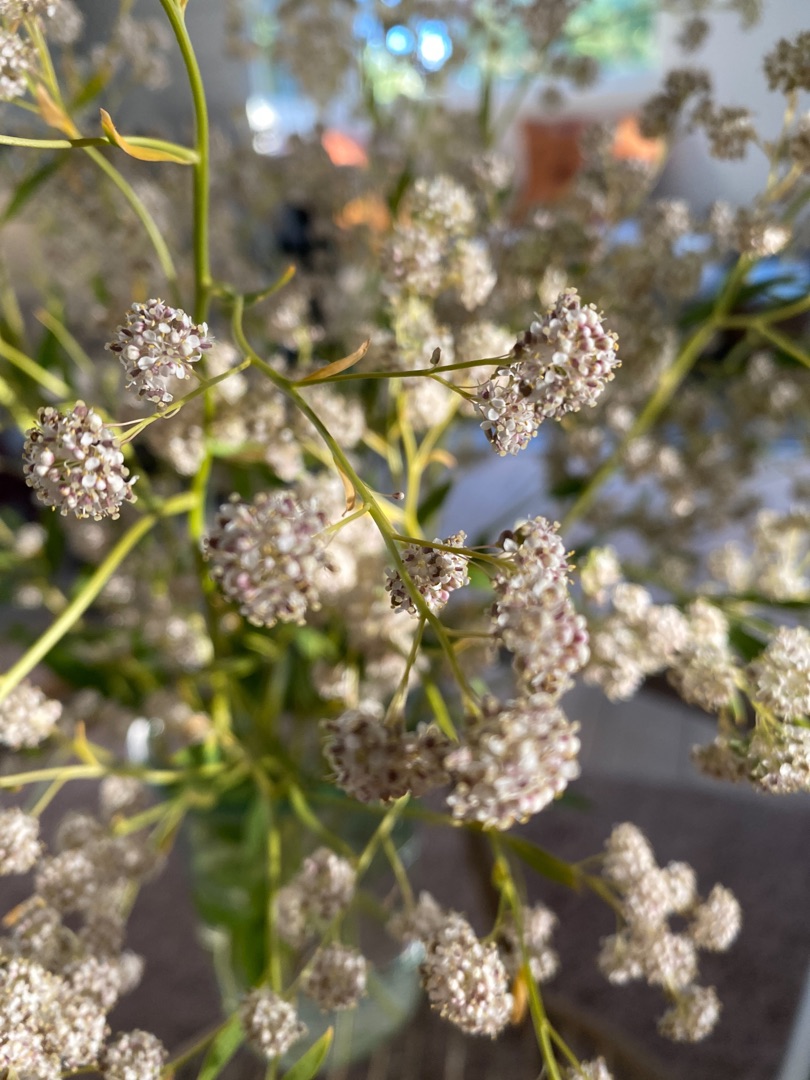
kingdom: Plantae
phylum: Tracheophyta
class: Magnoliopsida
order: Brassicales
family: Brassicaceae
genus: Lepidium
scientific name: Lepidium latifolium
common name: Strand-karse
